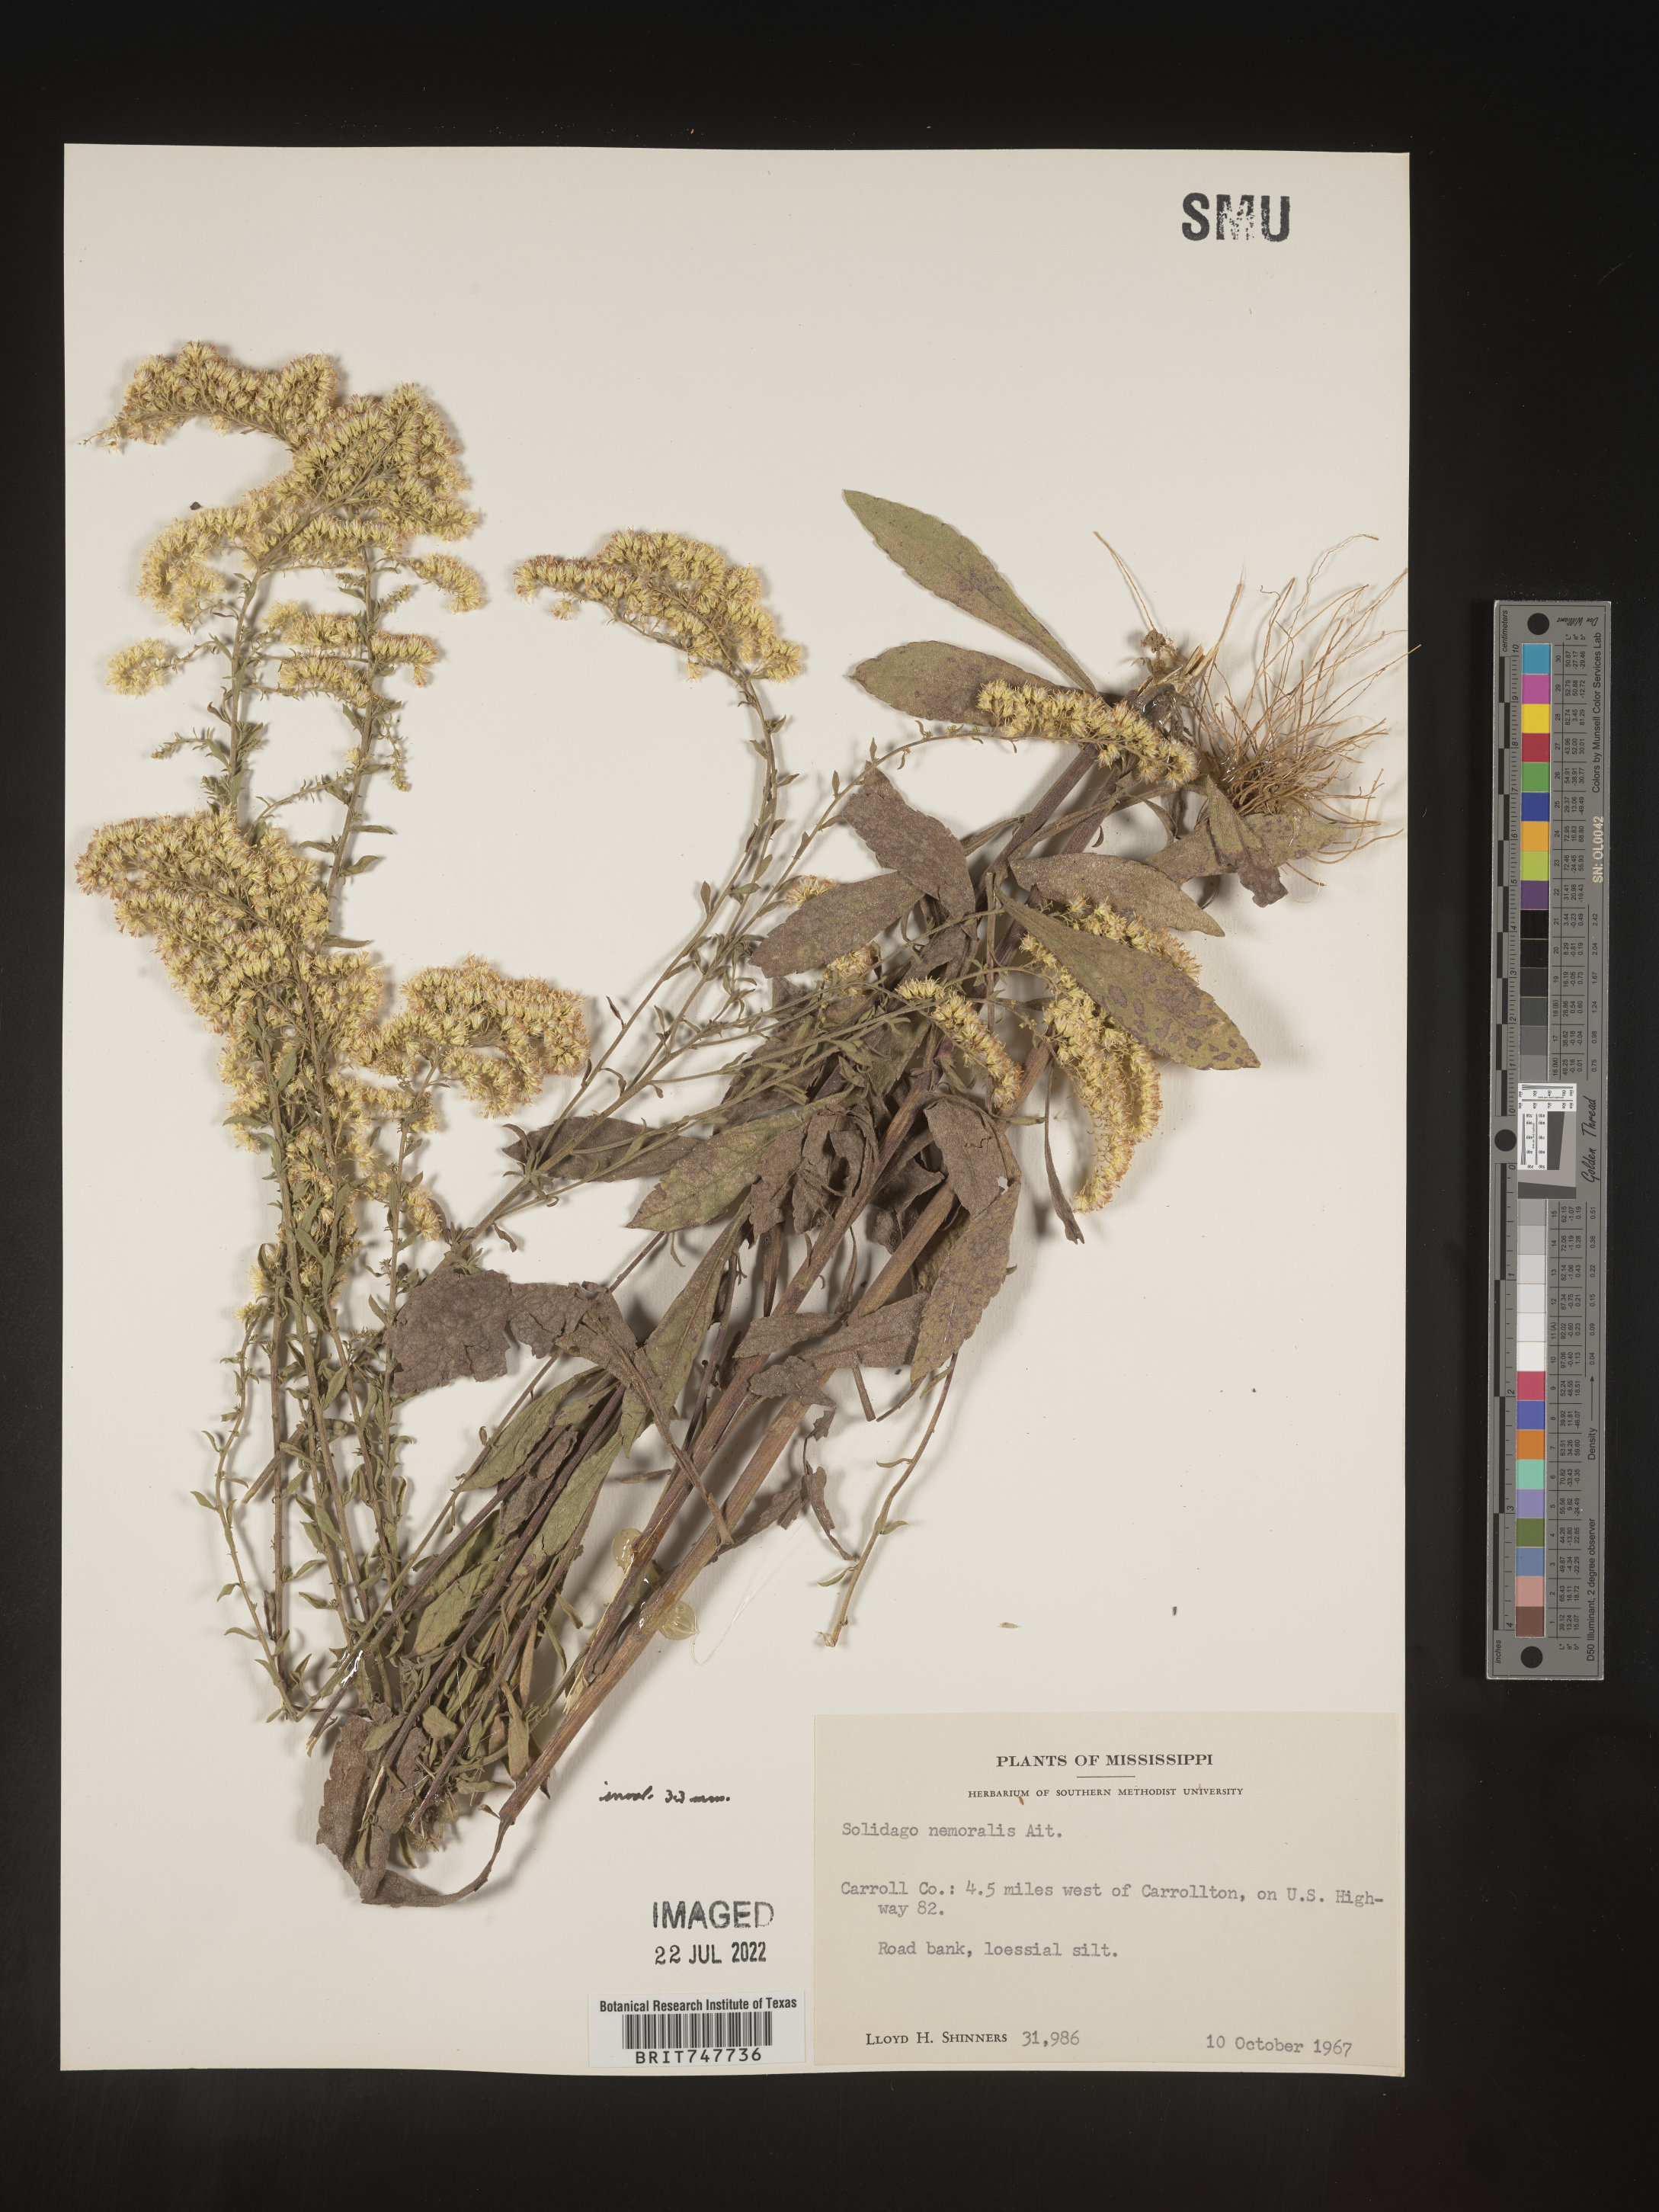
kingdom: Plantae
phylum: Tracheophyta
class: Magnoliopsida
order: Asterales
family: Asteraceae
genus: Solidago
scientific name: Solidago nemoralis
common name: Grey goldenrod
